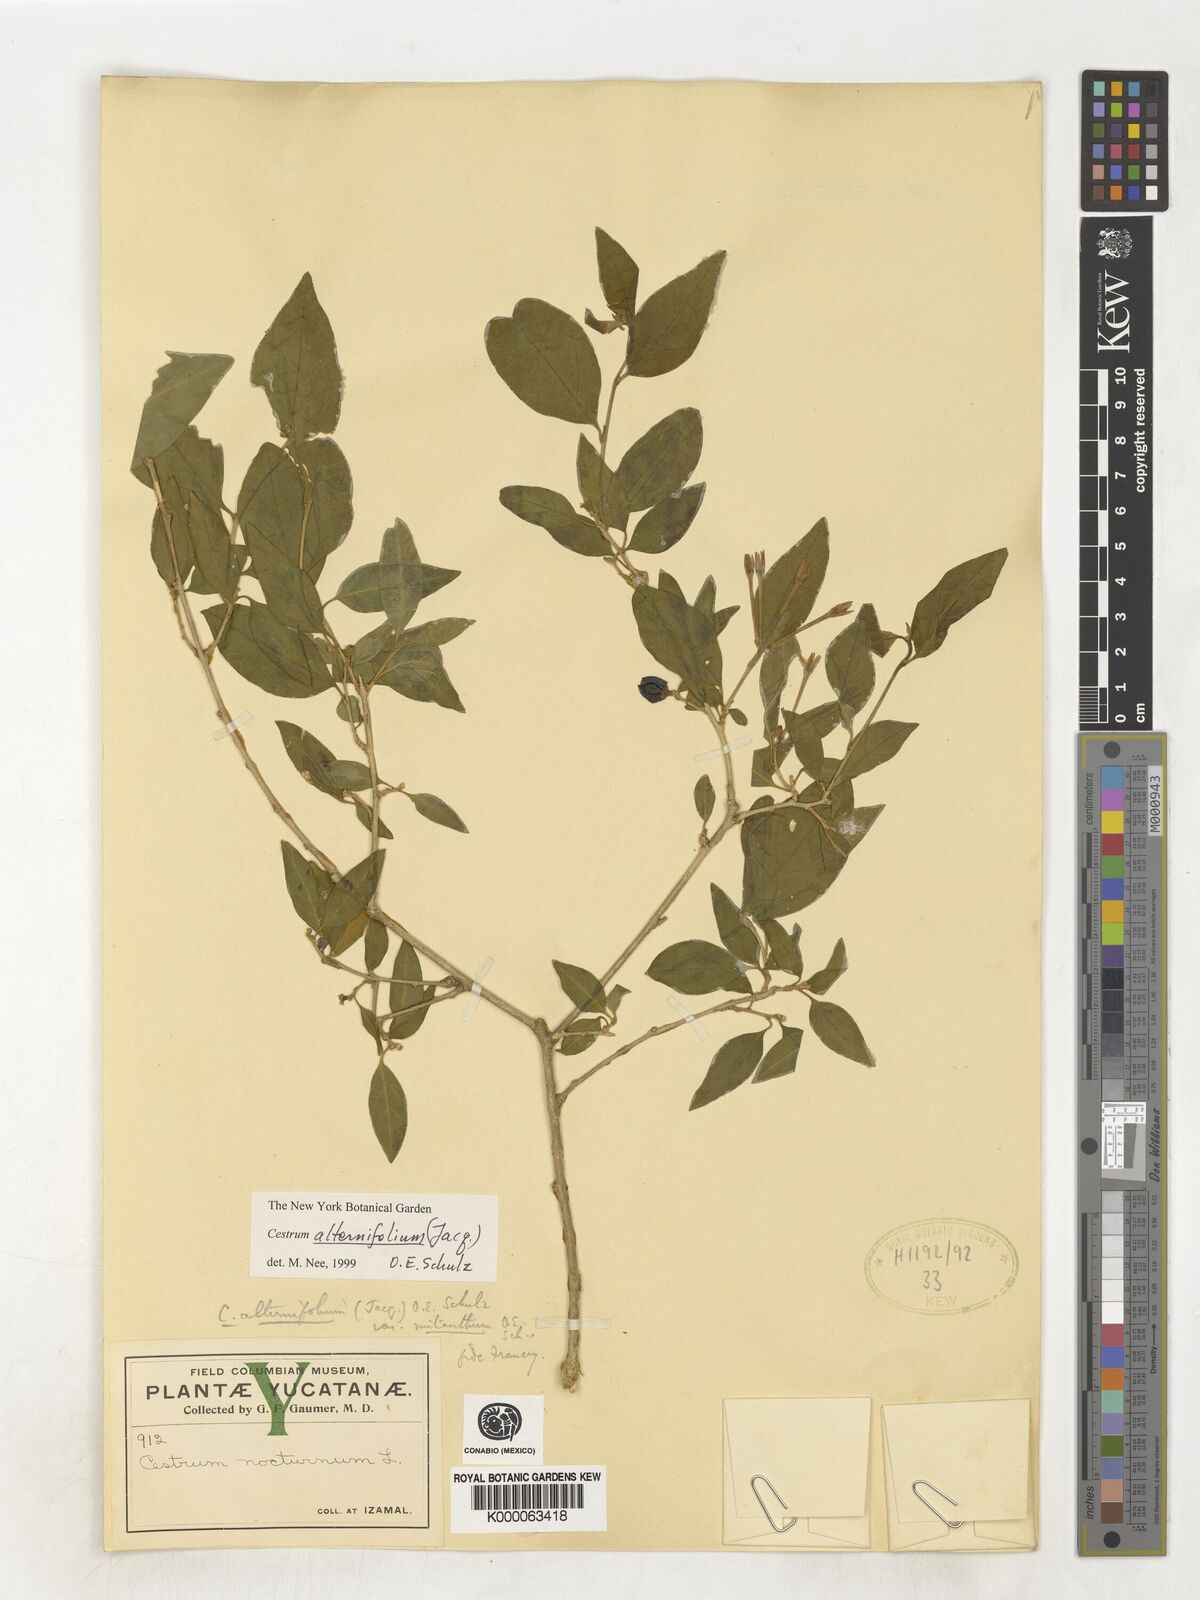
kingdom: Plantae
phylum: Tracheophyta
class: Magnoliopsida
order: Solanales
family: Solanaceae
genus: Cestrum
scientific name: Cestrum alternifolium
